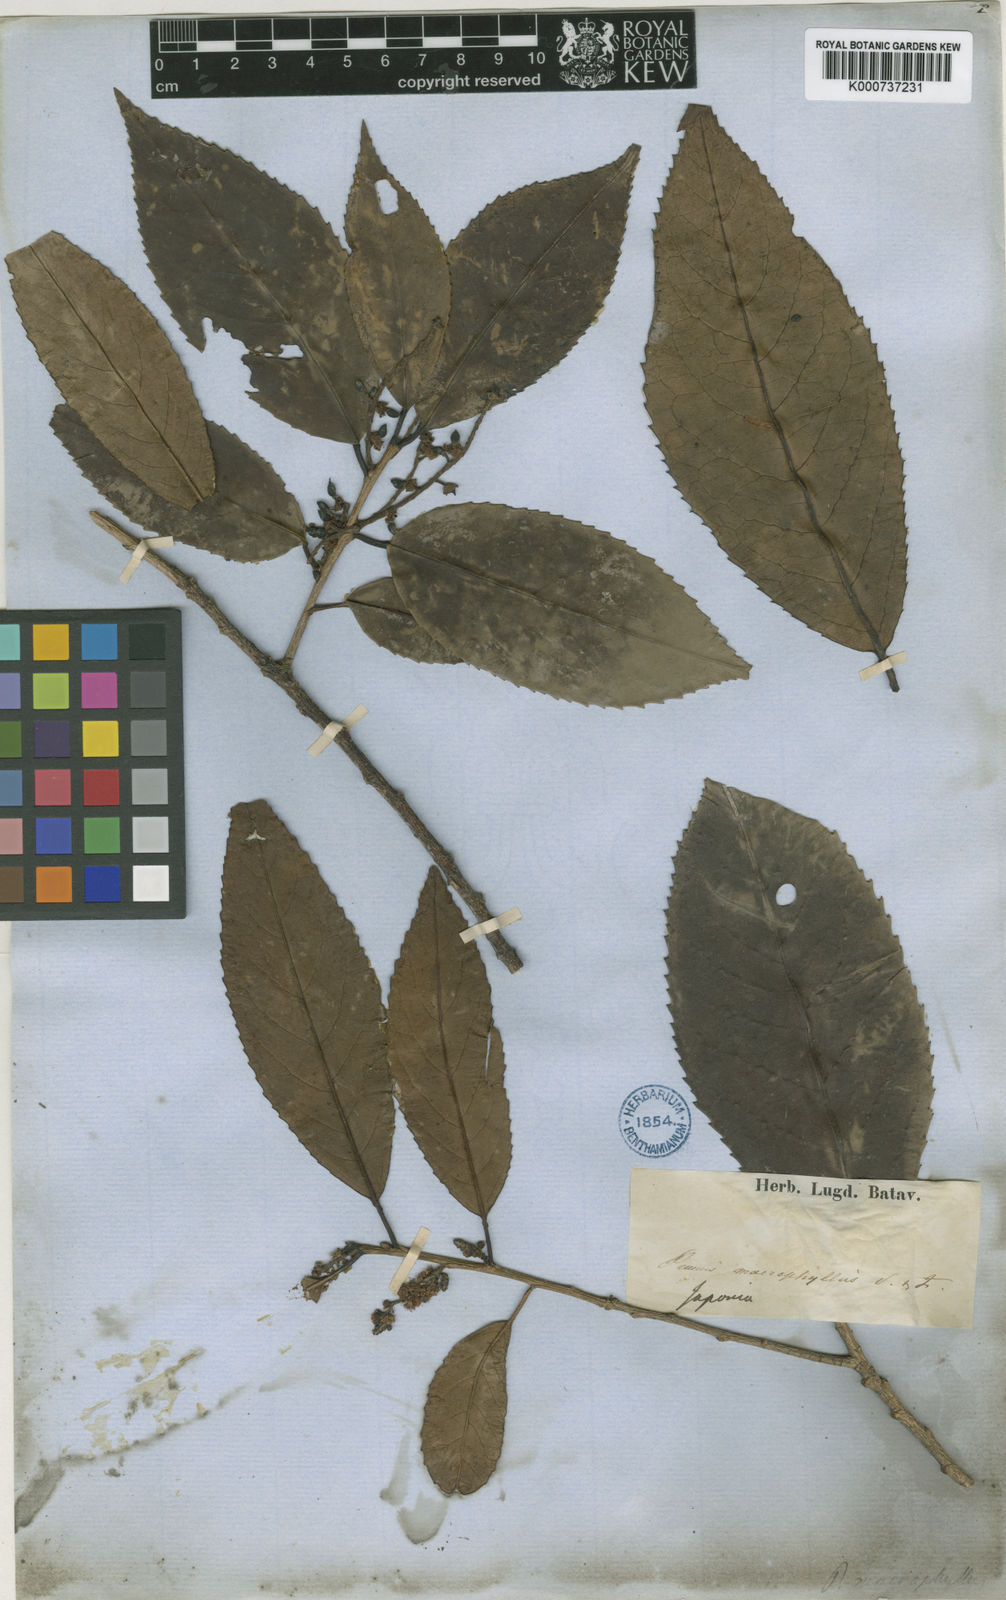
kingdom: Plantae
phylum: Tracheophyta
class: Magnoliopsida
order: Rosales
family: Rosaceae
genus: Prunus
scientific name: Prunus zippeliana
